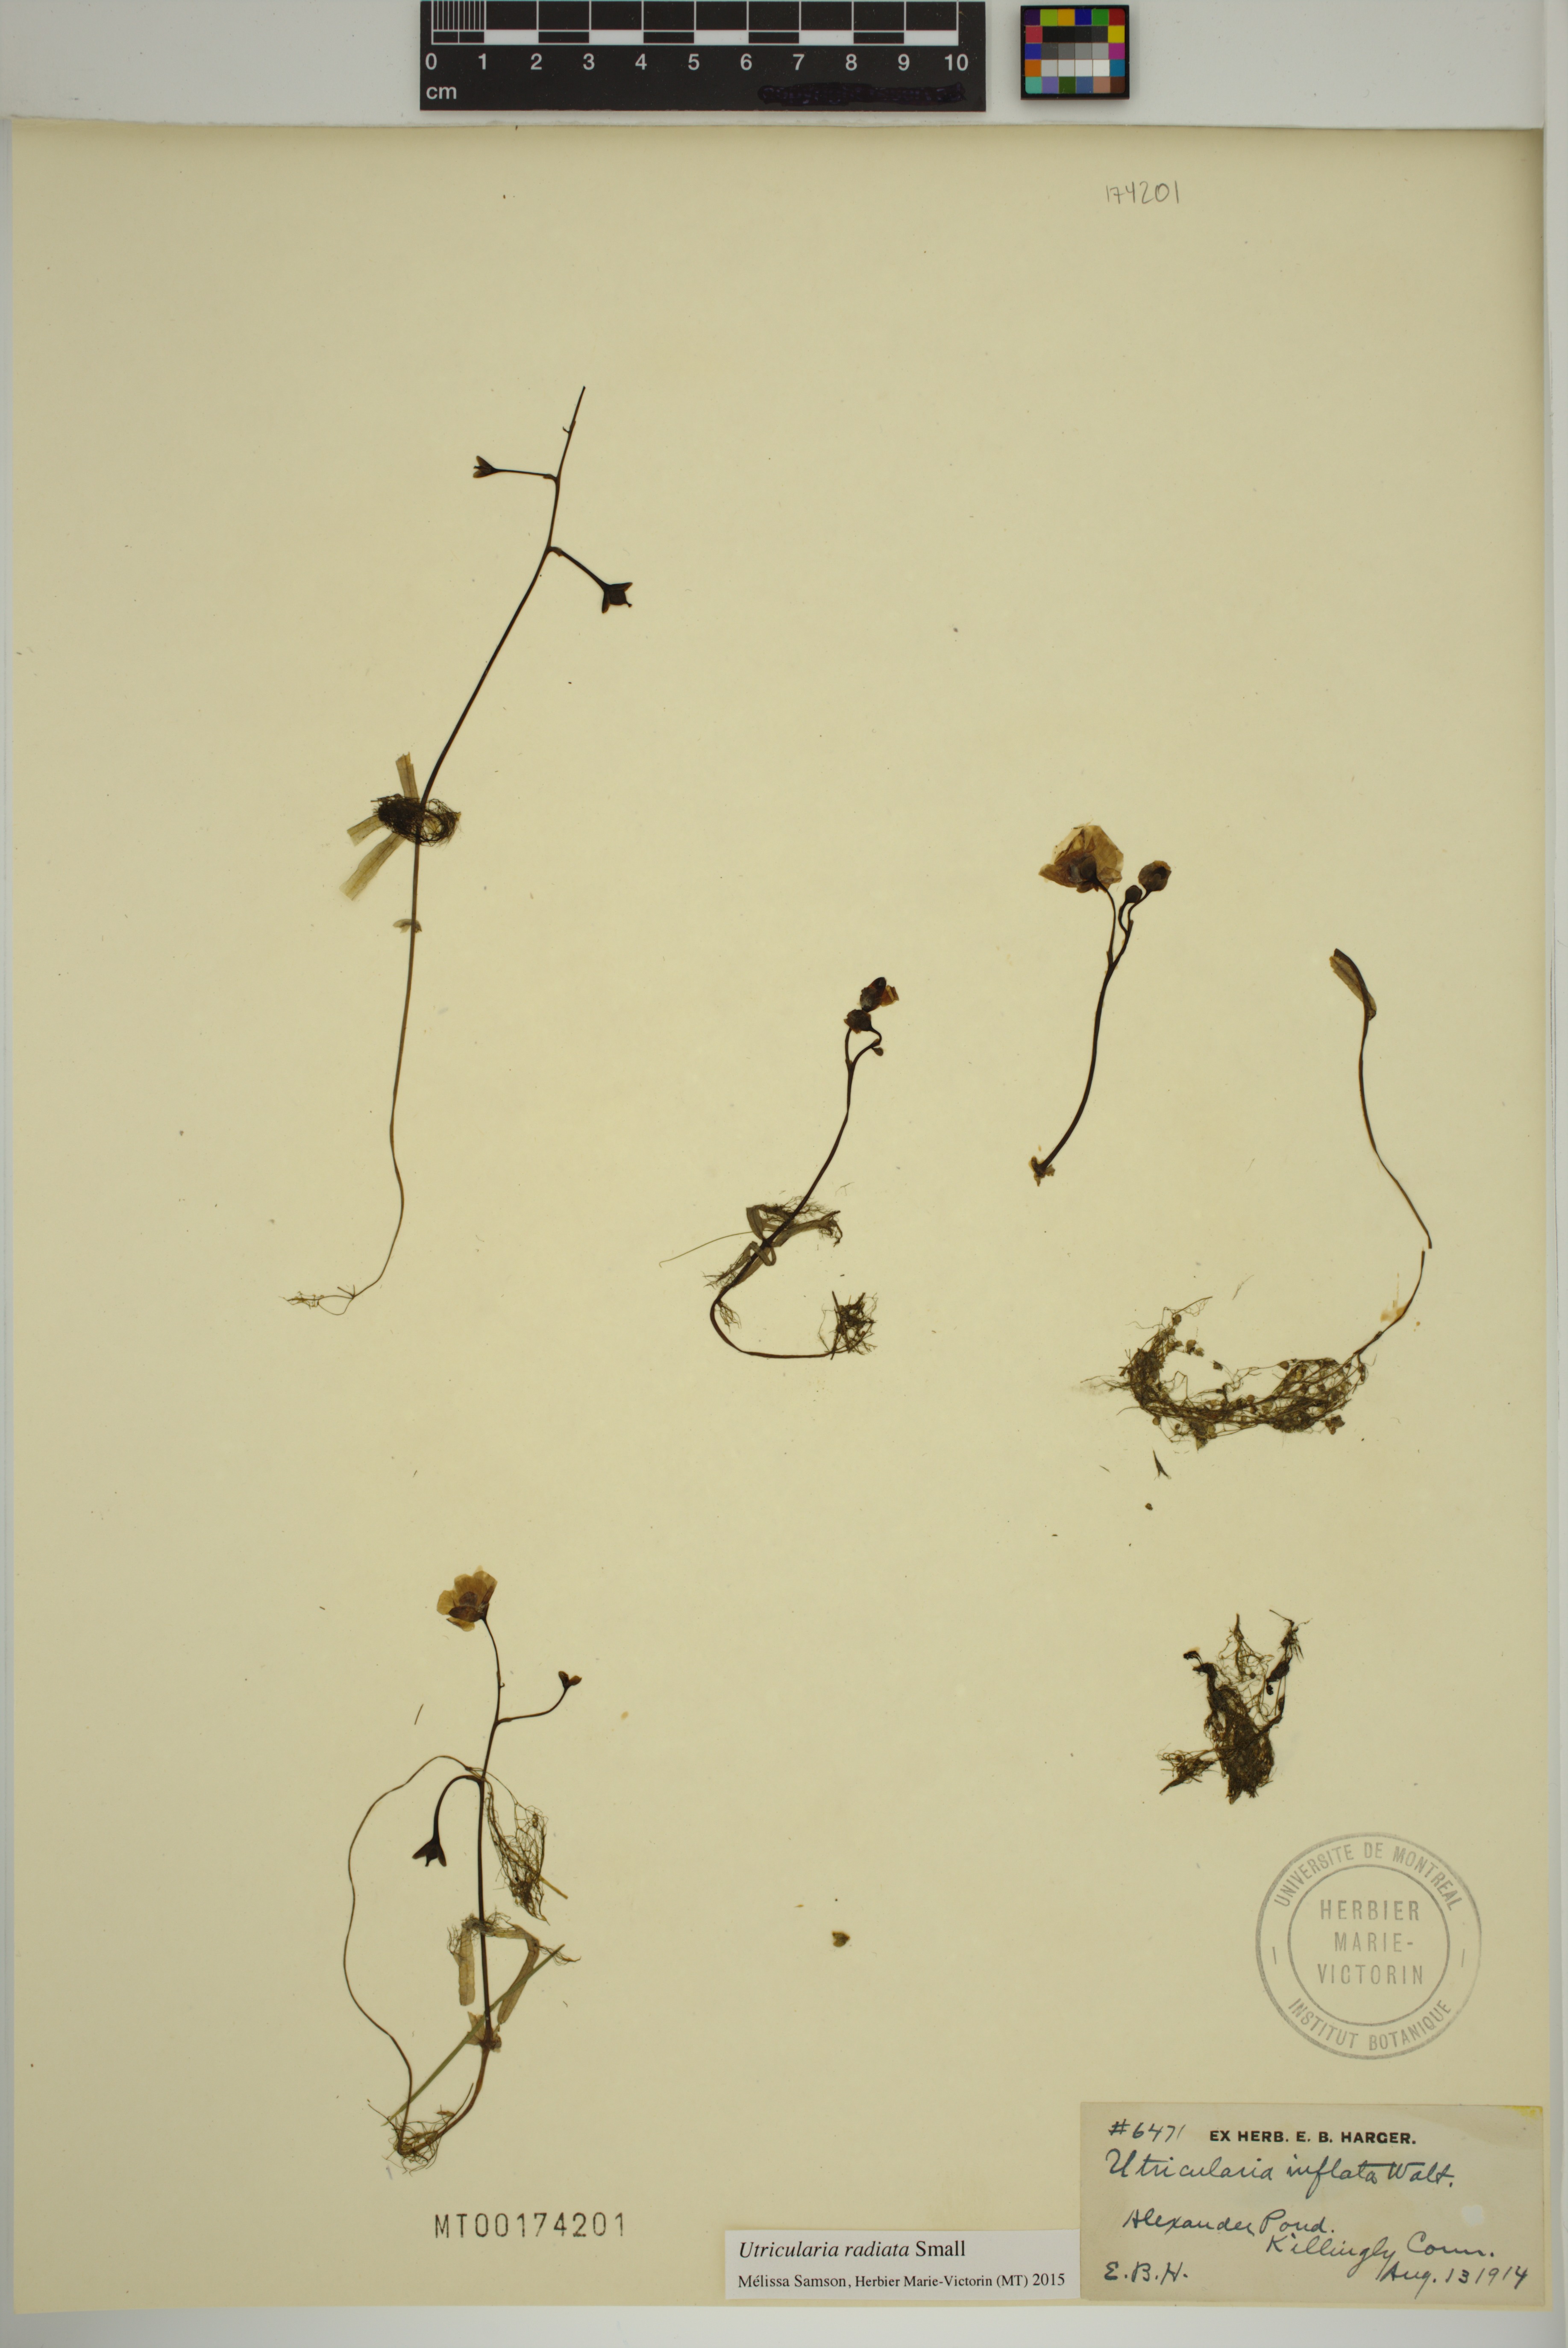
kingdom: Plantae
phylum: Tracheophyta
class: Magnoliopsida
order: Lamiales
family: Lentibulariaceae
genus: Utricularia
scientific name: Utricularia radiata
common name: Floating bladderwort
